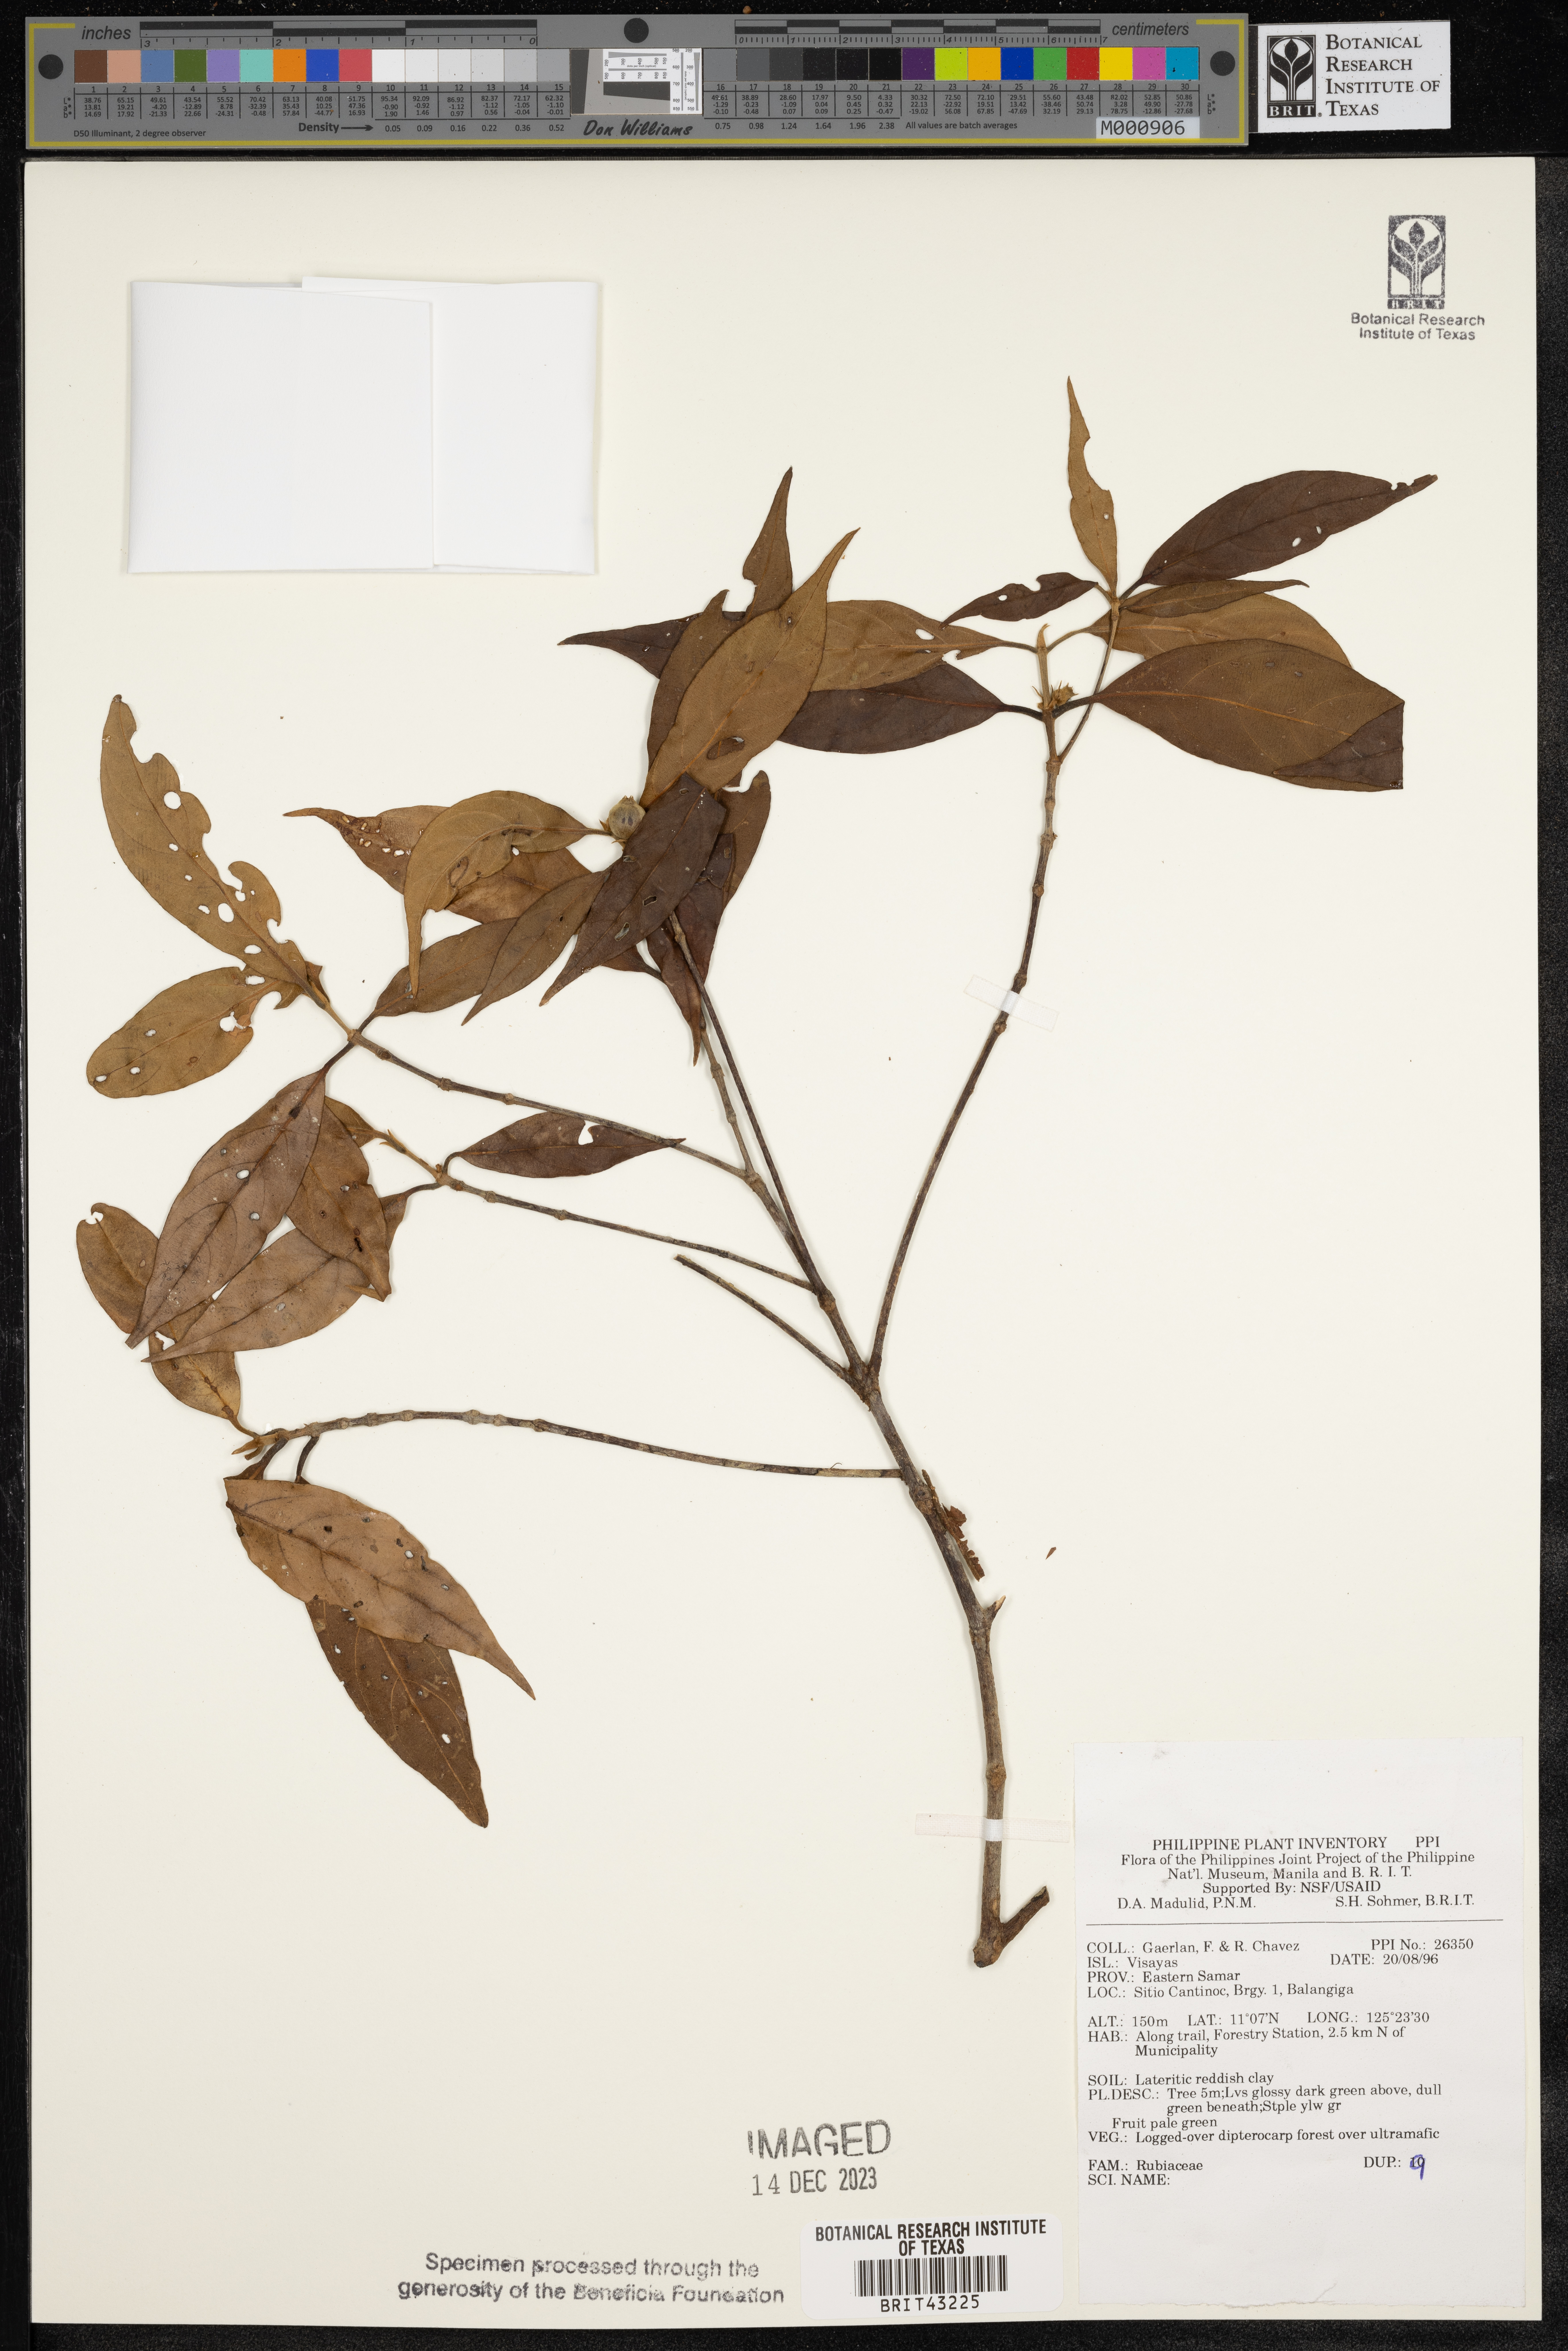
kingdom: Plantae
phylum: Tracheophyta
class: Magnoliopsida
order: Gentianales
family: Rubiaceae
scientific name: Rubiaceae
